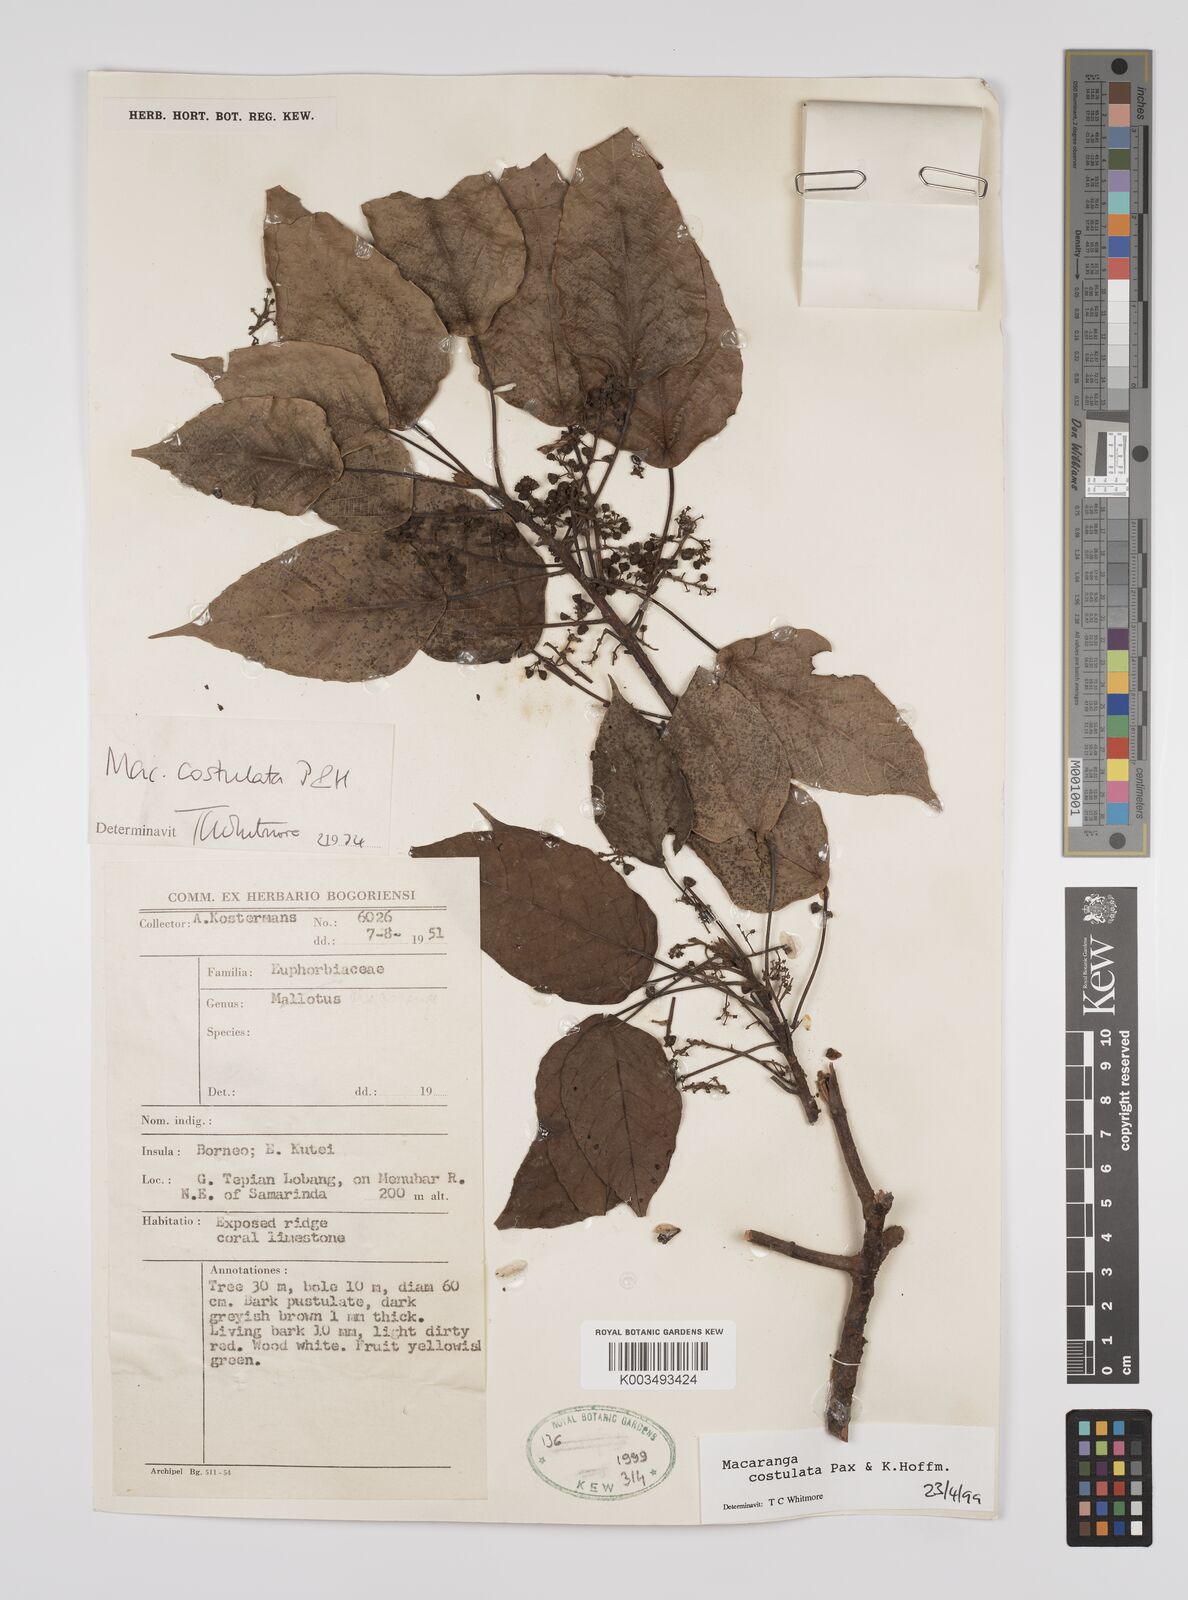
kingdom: Plantae
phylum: Tracheophyta
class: Magnoliopsida
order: Malpighiales
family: Euphorbiaceae
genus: Macaranga
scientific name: Macaranga costulata
